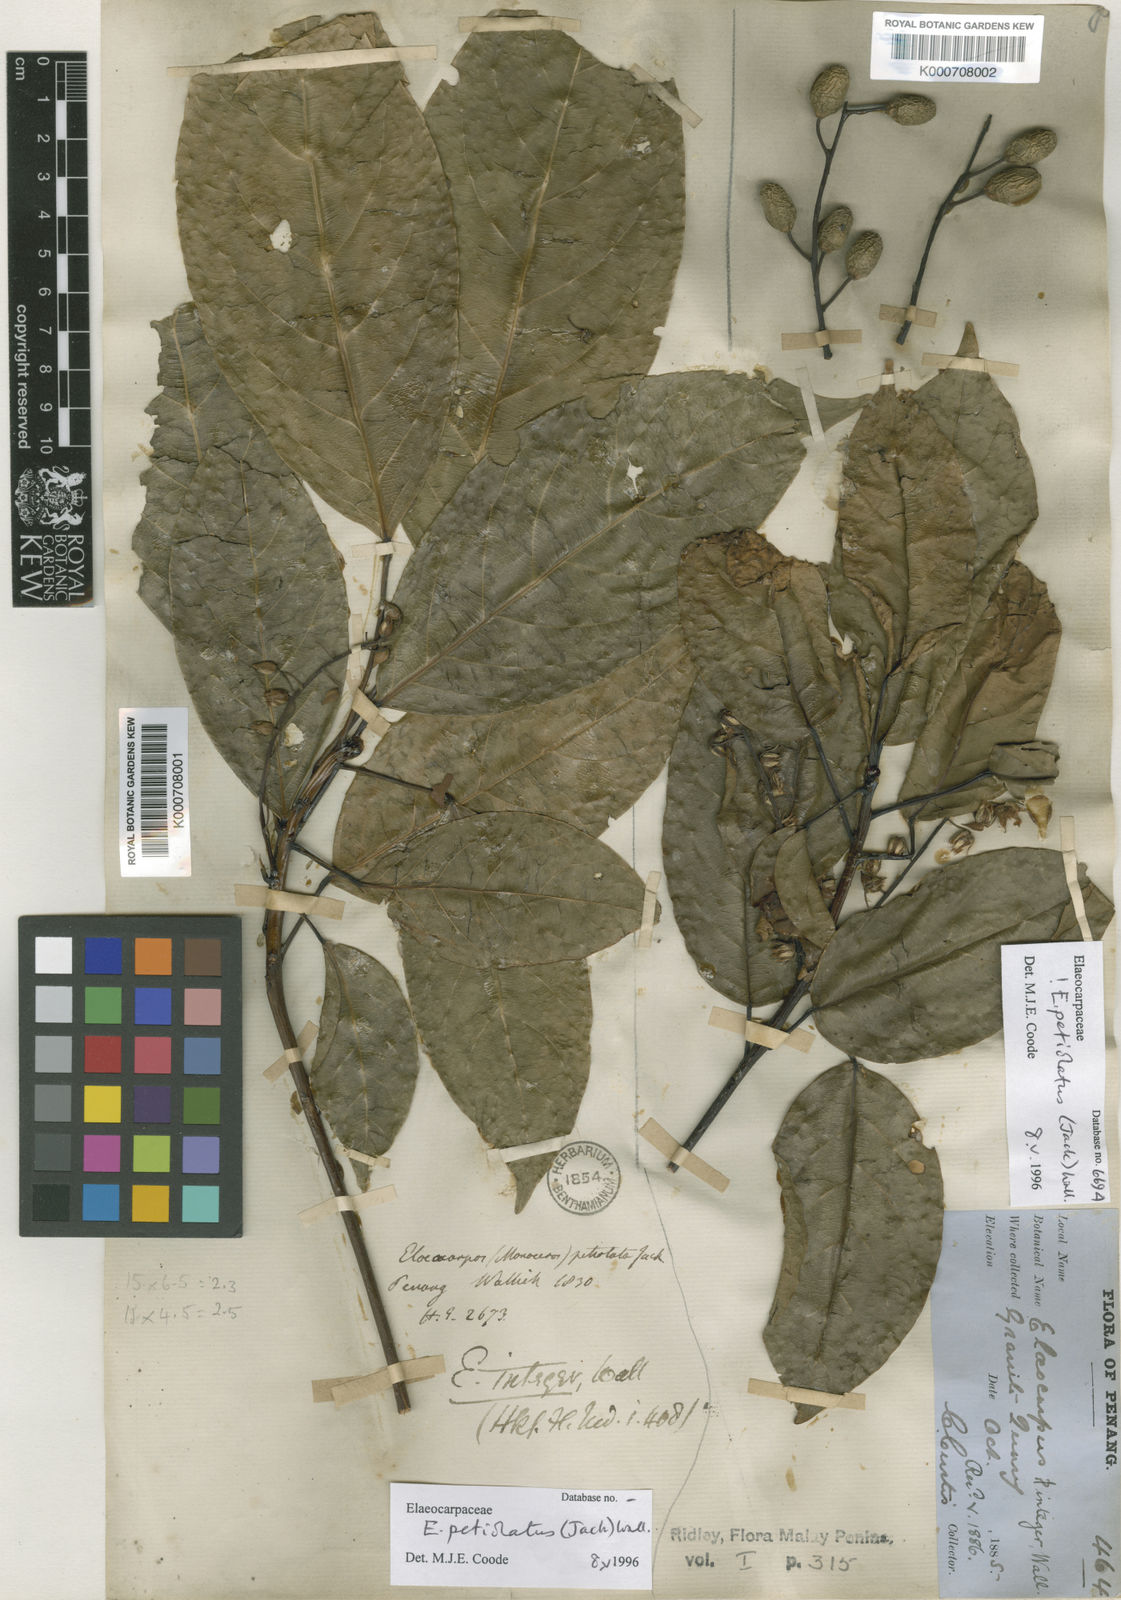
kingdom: Plantae
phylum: Tracheophyta
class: Magnoliopsida
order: Oxalidales
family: Elaeocarpaceae
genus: Elaeocarpus
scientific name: Elaeocarpus petiolatus
